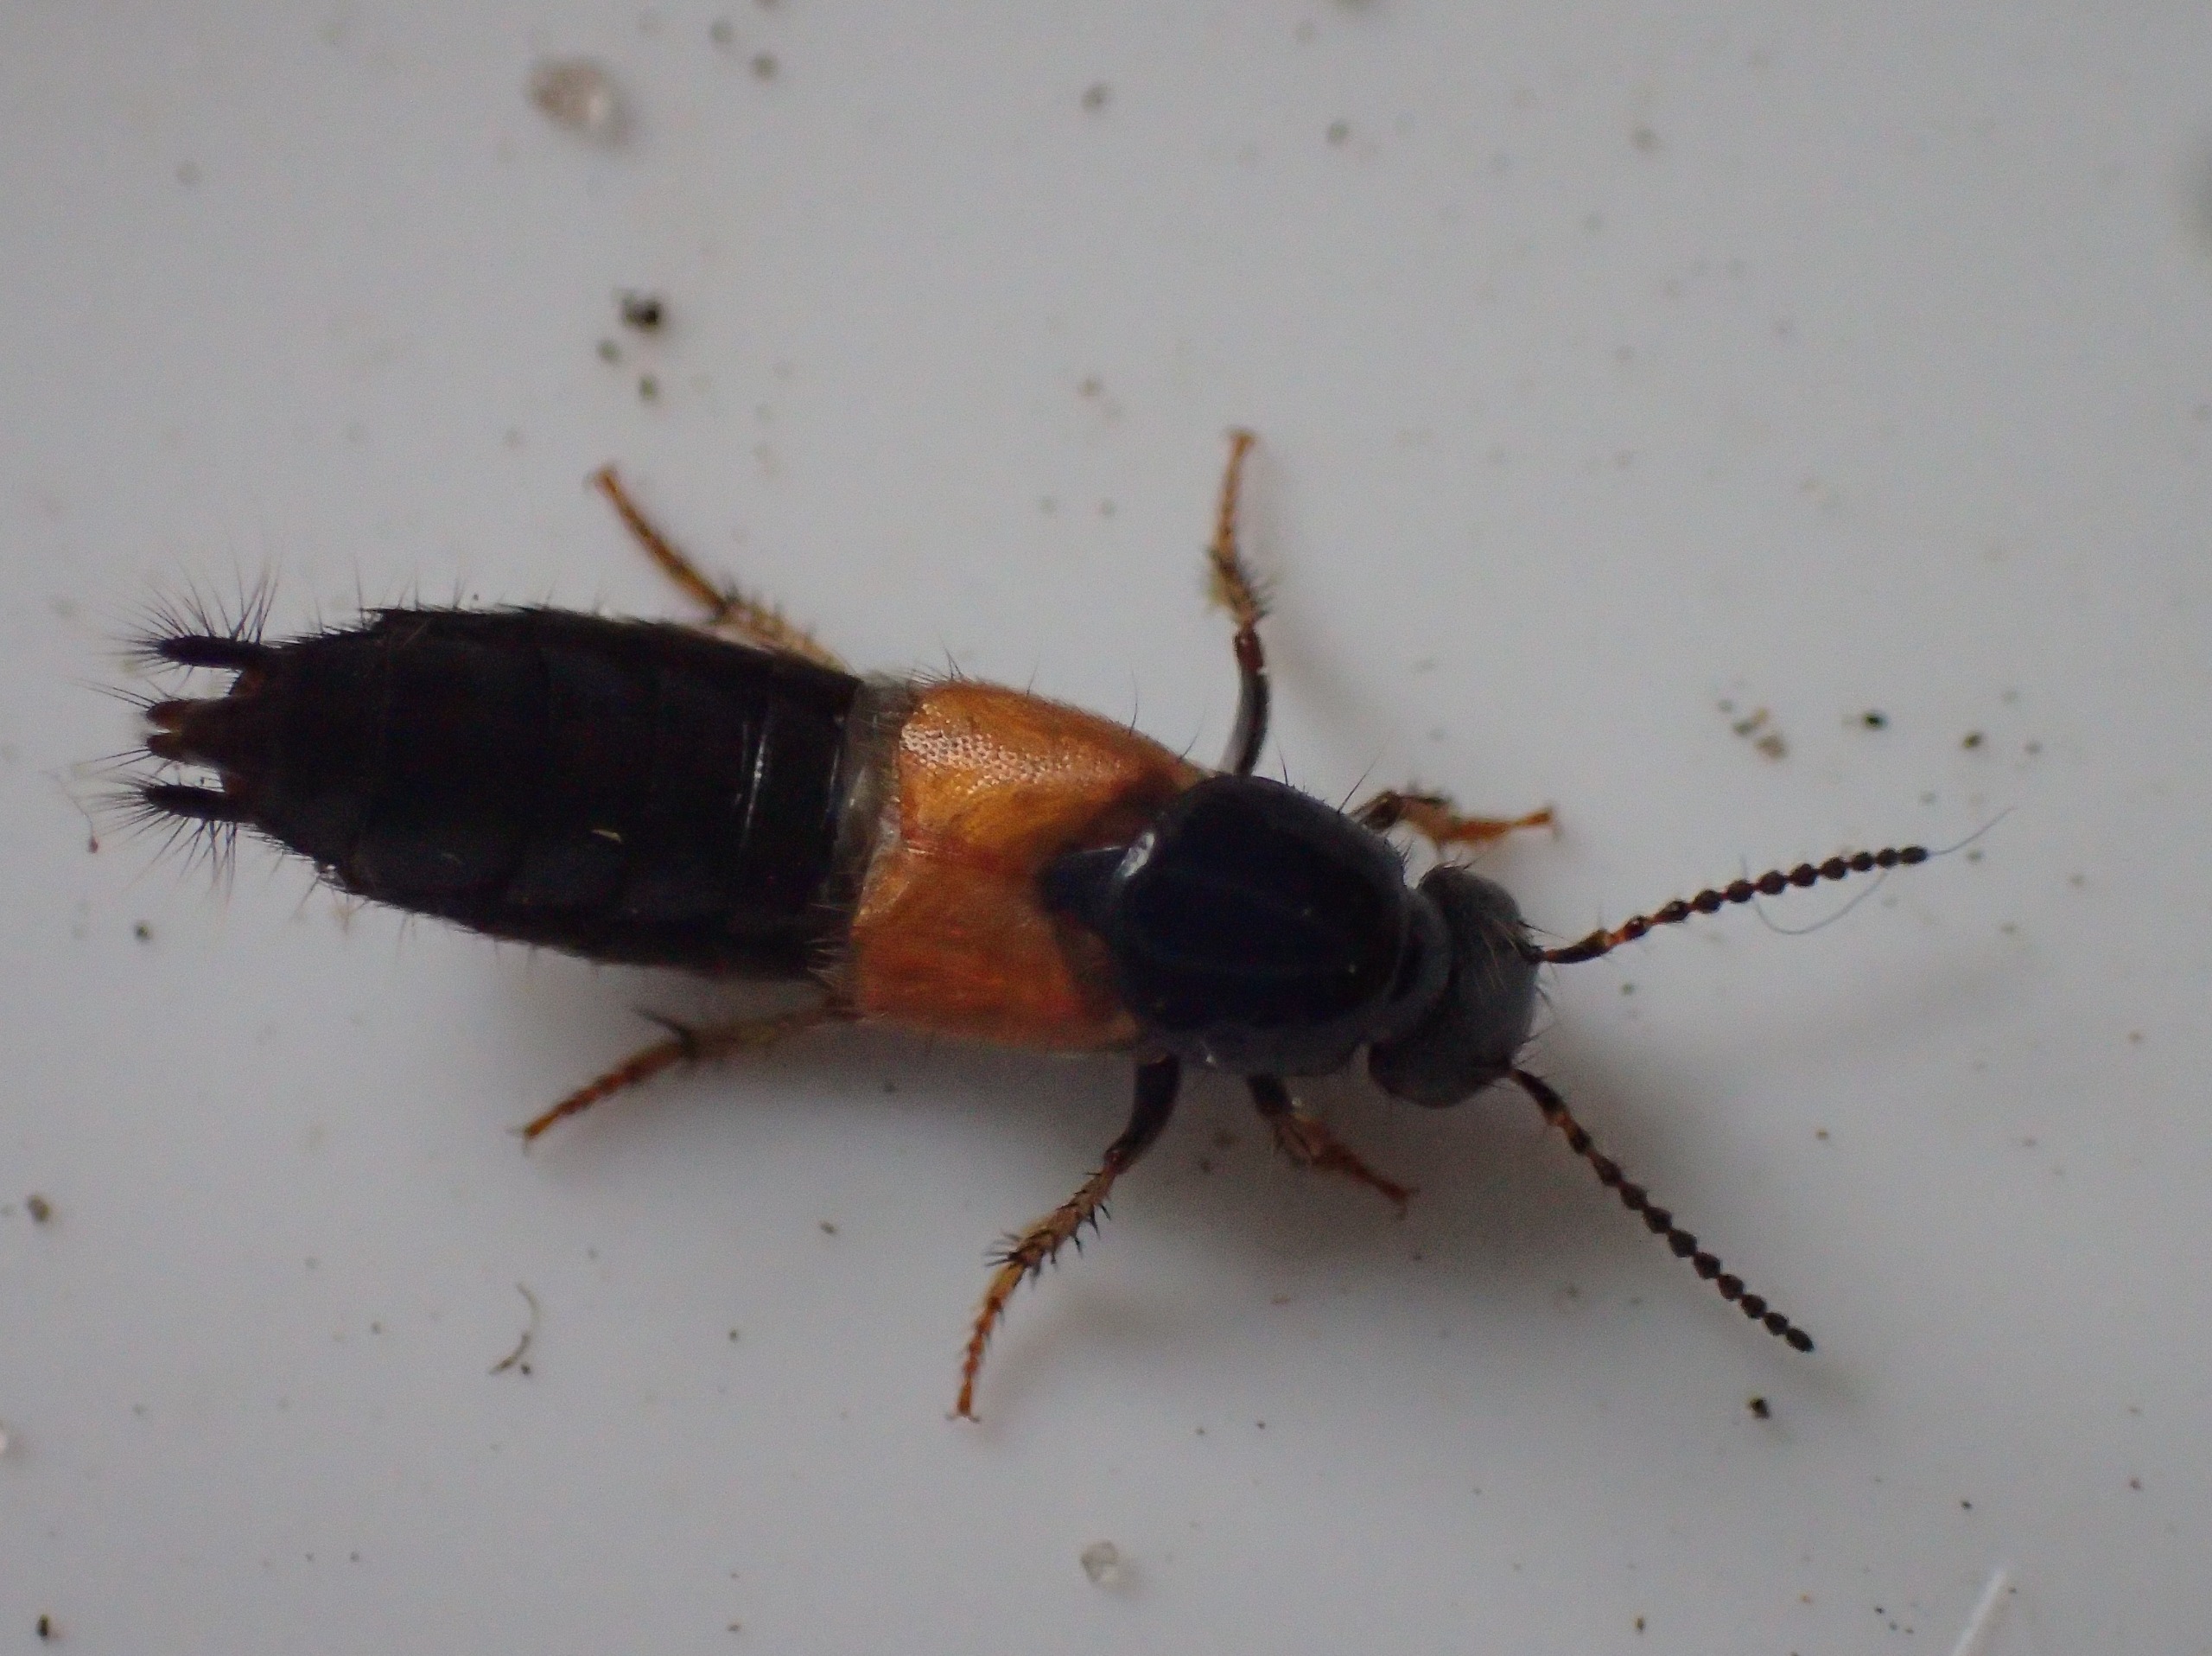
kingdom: Animalia
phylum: Arthropoda
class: Insecta
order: Coleoptera
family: Staphylinidae
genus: Philonthus
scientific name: Philonthus spinipes
